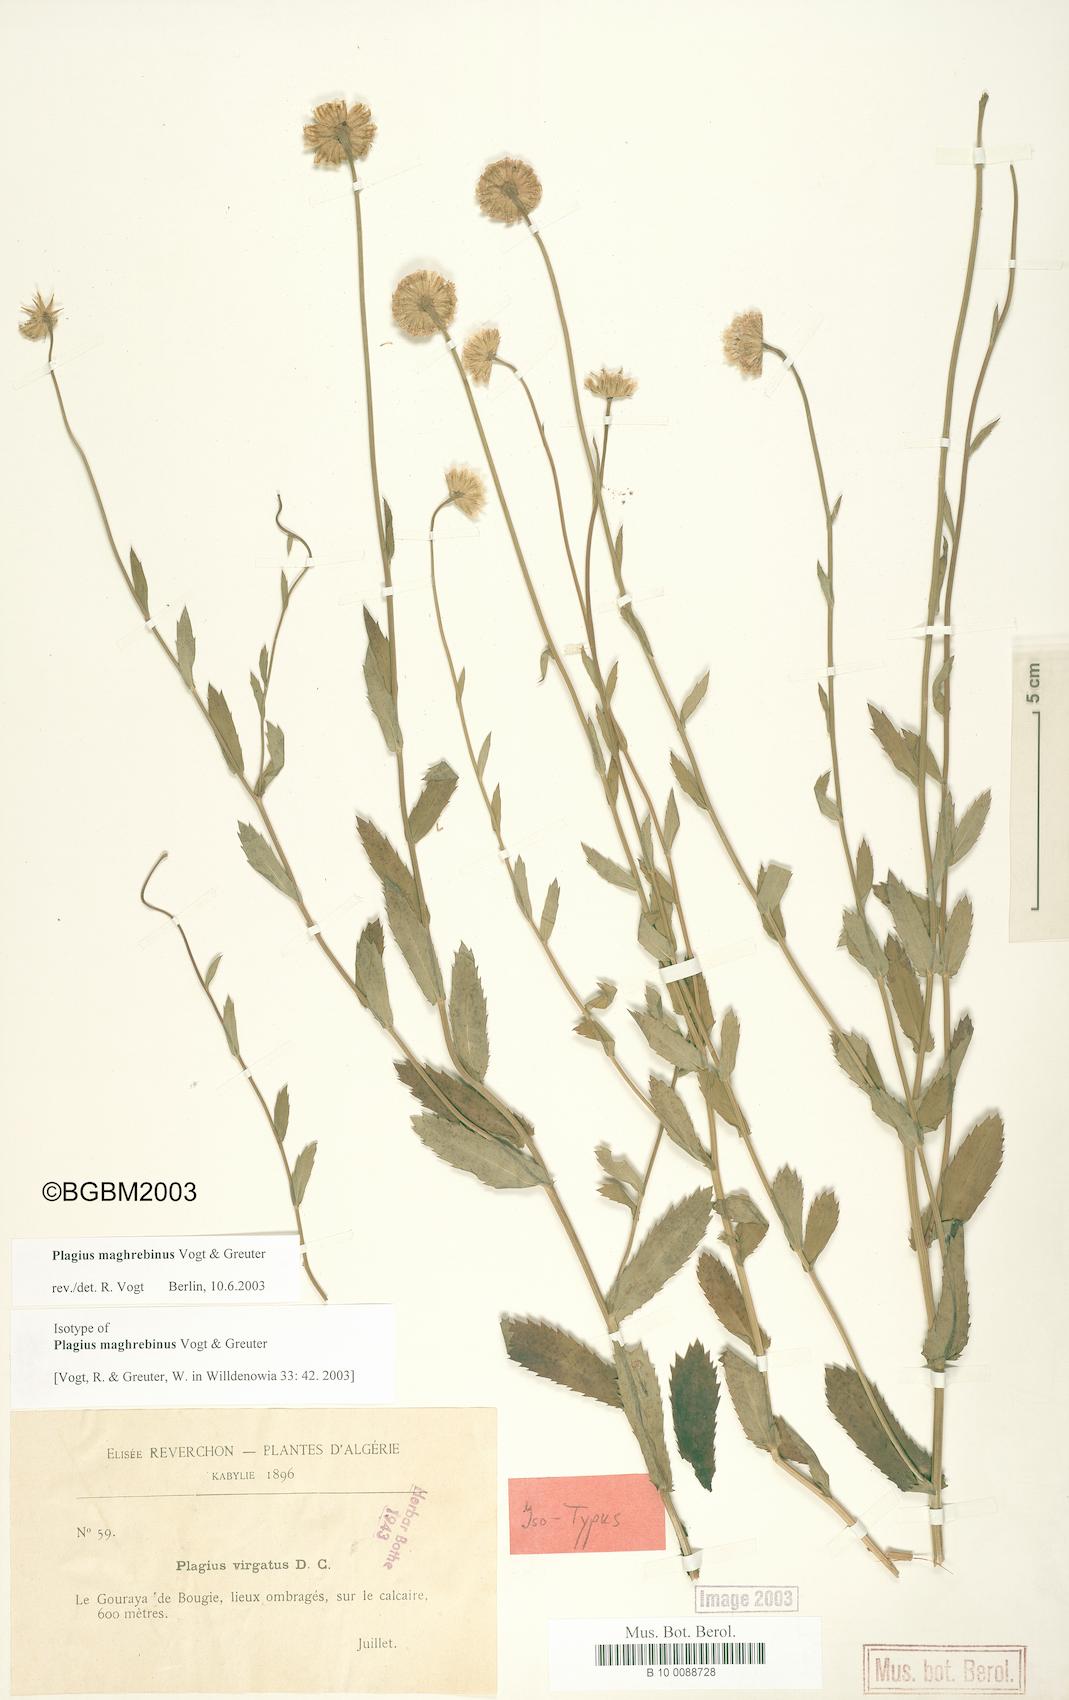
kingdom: Plantae
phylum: Tracheophyta
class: Magnoliopsida
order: Asterales
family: Asteraceae
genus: Plagius
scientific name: Plagius maghrebinus
